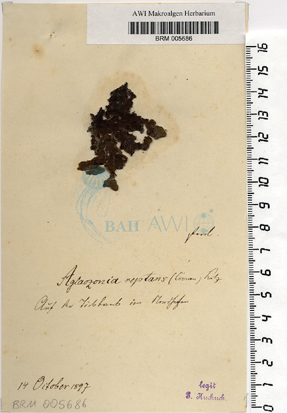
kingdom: Chromista
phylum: Ochrophyta
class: Phaeophyceae
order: Cutleriales
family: Cutleriaceae
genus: Cutleria
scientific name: Cutleria multifida
